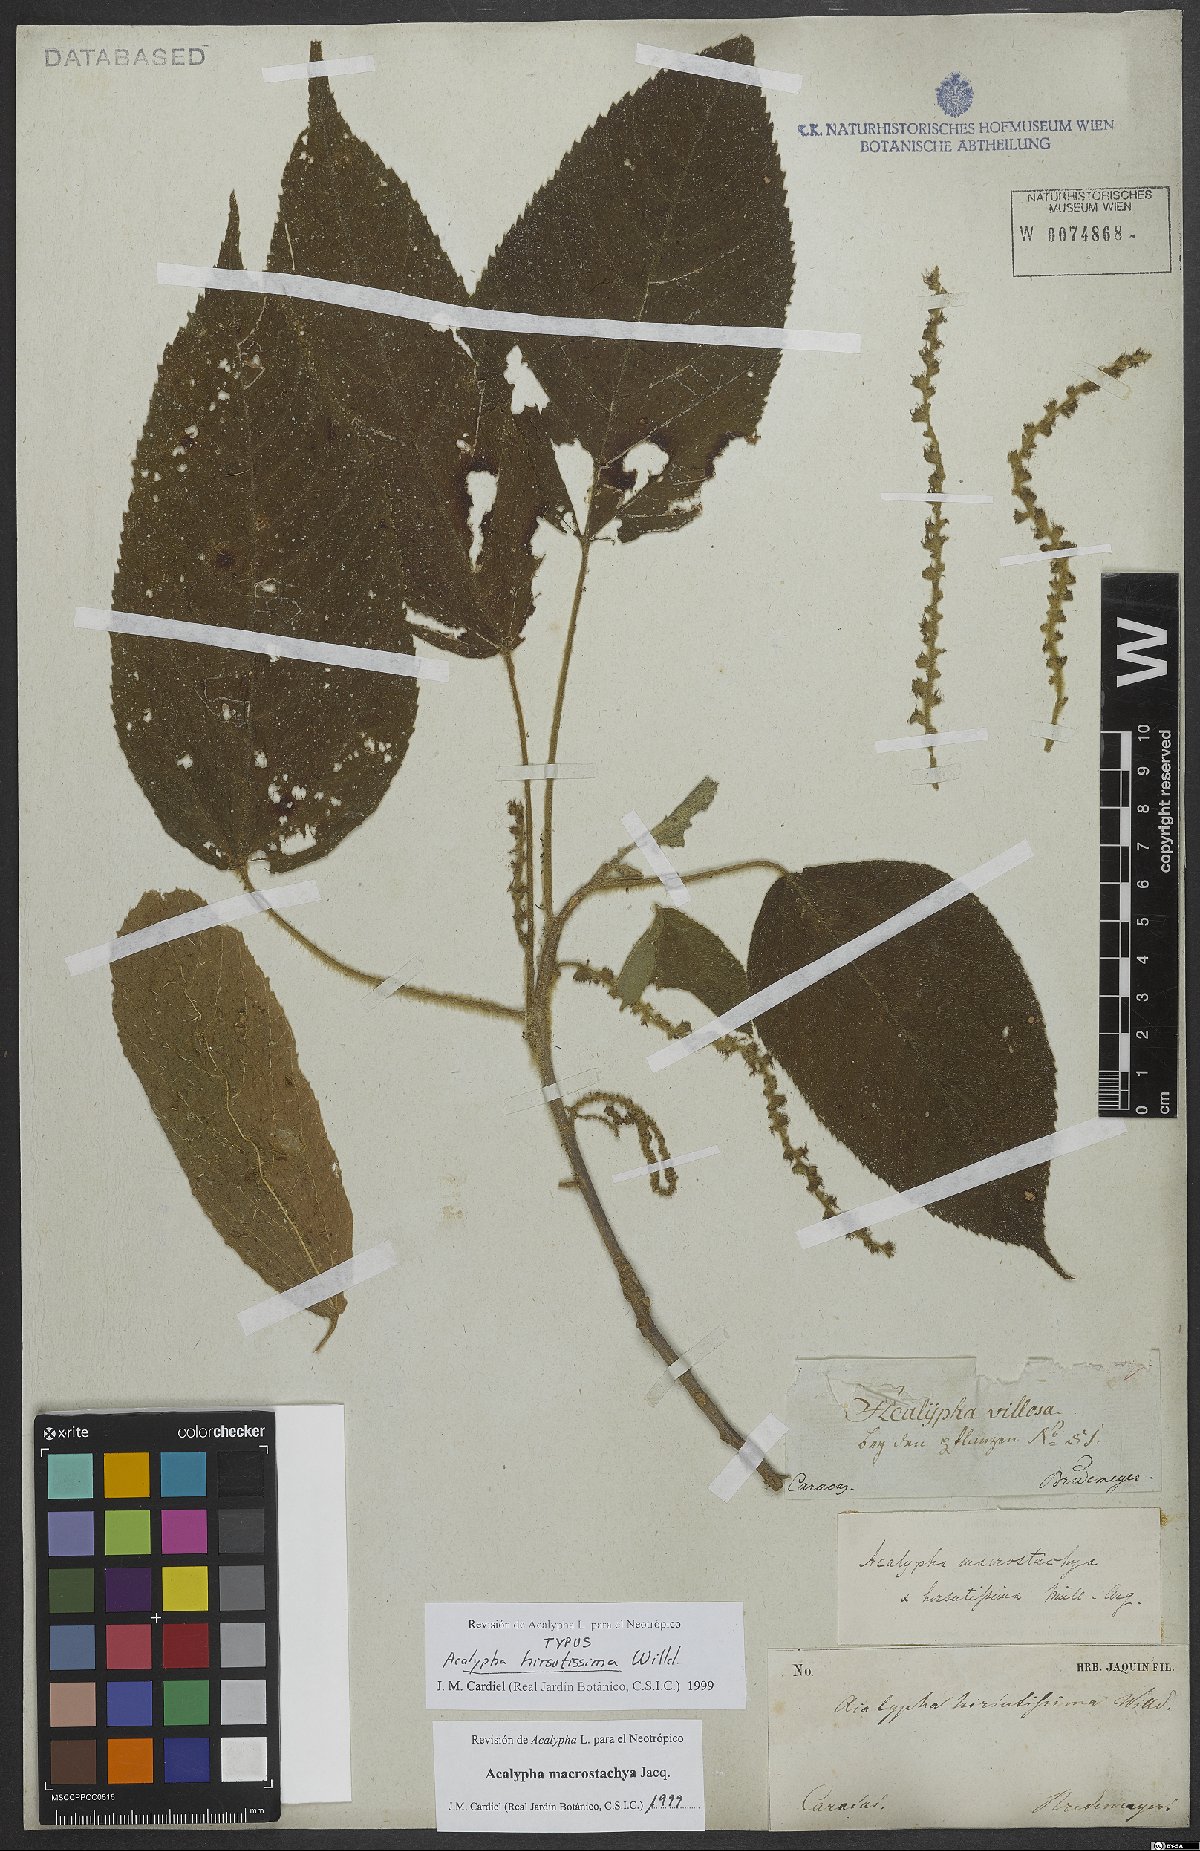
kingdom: Plantae
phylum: Tracheophyta
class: Magnoliopsida
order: Malpighiales
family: Euphorbiaceae
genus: Acalypha
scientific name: Acalypha macrostachya
